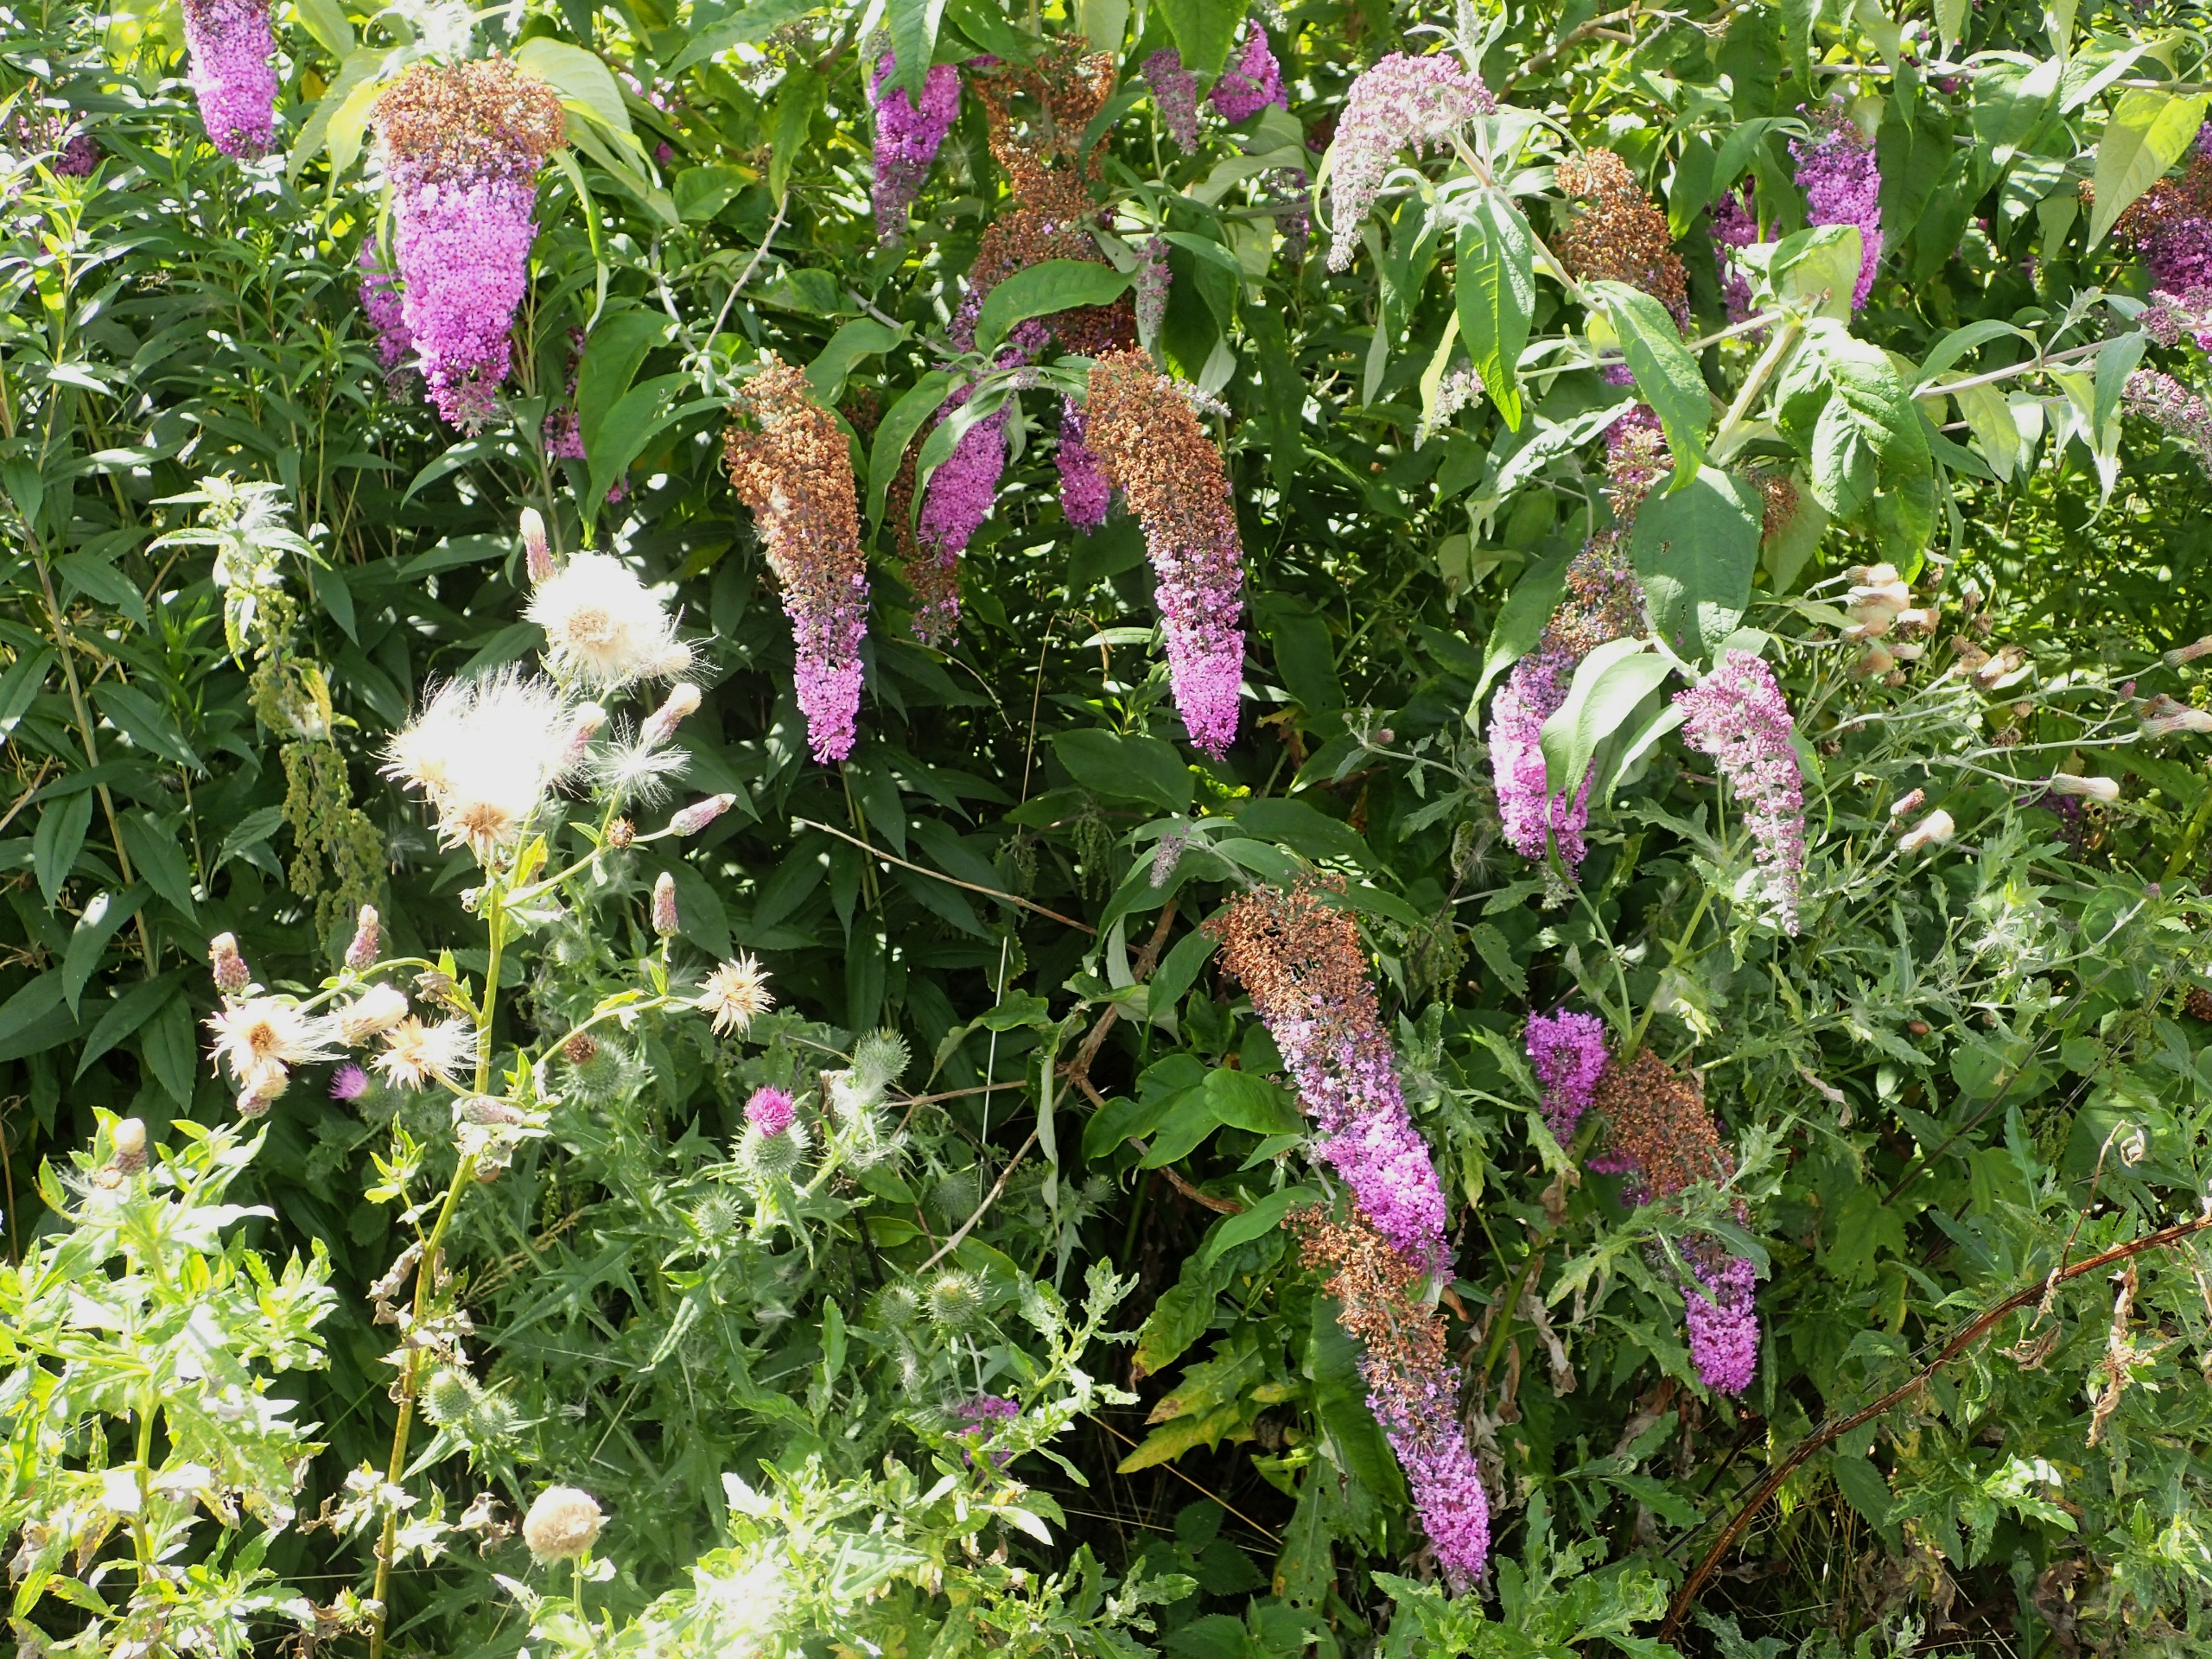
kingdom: Plantae
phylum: Tracheophyta
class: Magnoliopsida
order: Lamiales
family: Scrophulariaceae
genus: Buddleja
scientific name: Buddleja davidii
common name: Sommerfuglebusk
